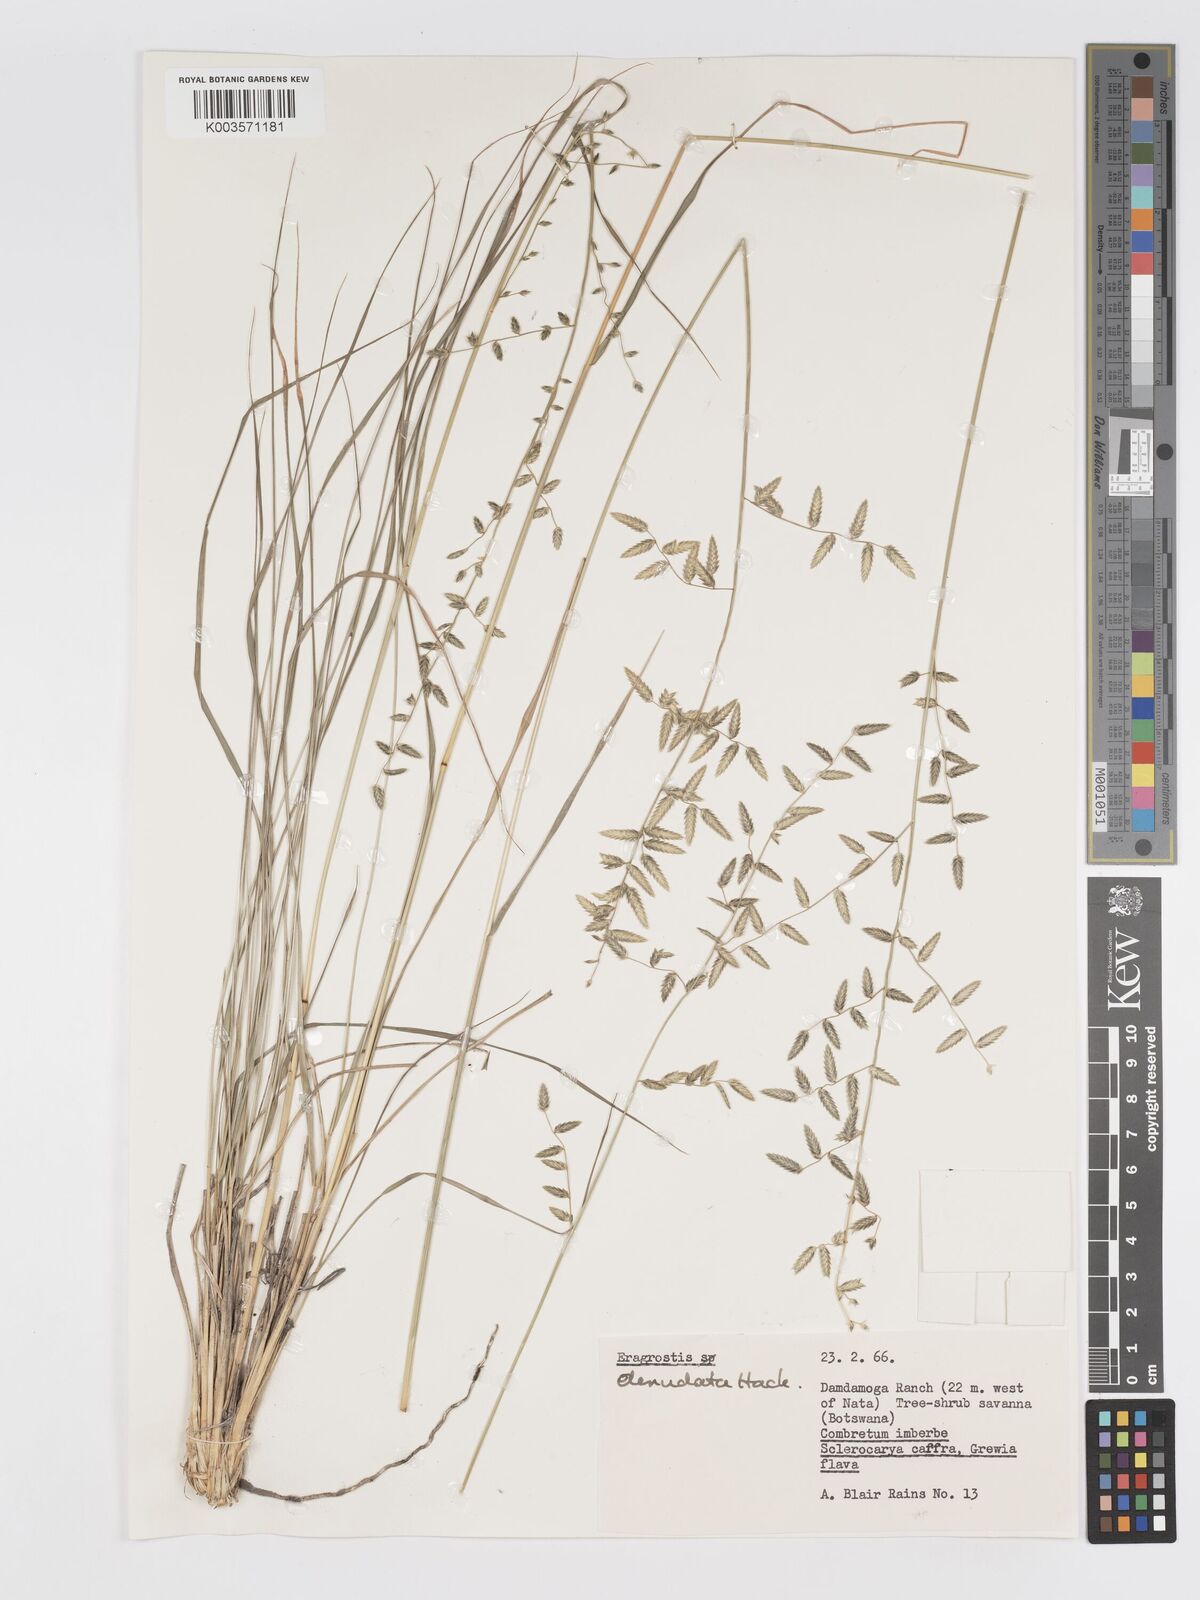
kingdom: Plantae
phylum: Tracheophyta
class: Liliopsida
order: Poales
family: Poaceae
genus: Eragrostis
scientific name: Eragrostis nindensis
